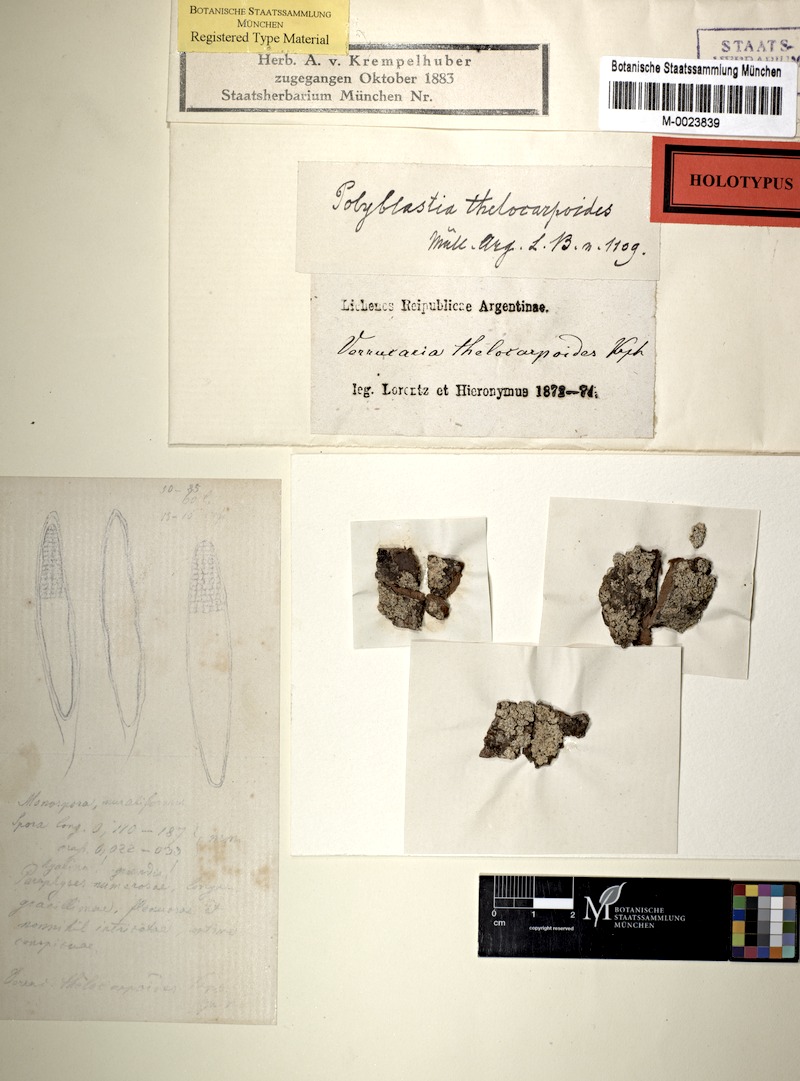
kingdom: Fungi
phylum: Ascomycota
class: Lecanoromycetes
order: Ostropales
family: Thelenellaceae
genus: Polyblastiopsis
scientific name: Polyblastiopsis
